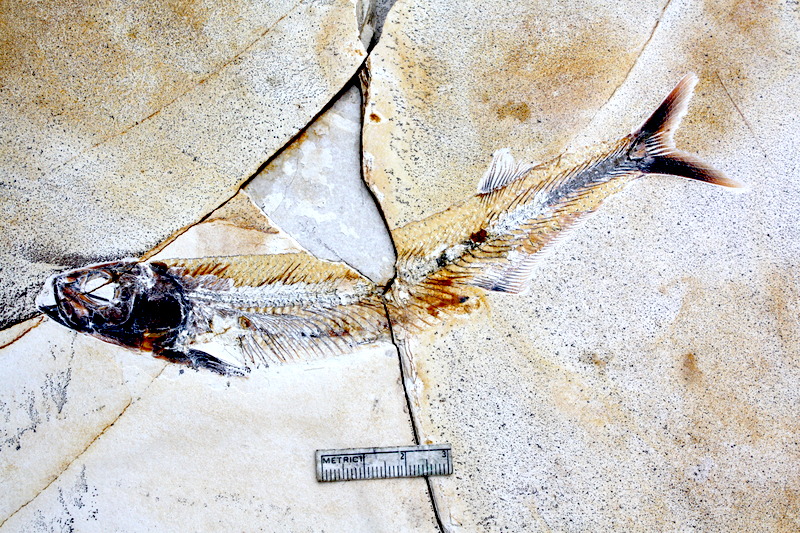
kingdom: Animalia
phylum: Chordata
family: Allothrissopidae
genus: Allothrissops
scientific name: Allothrissops mesogaster
